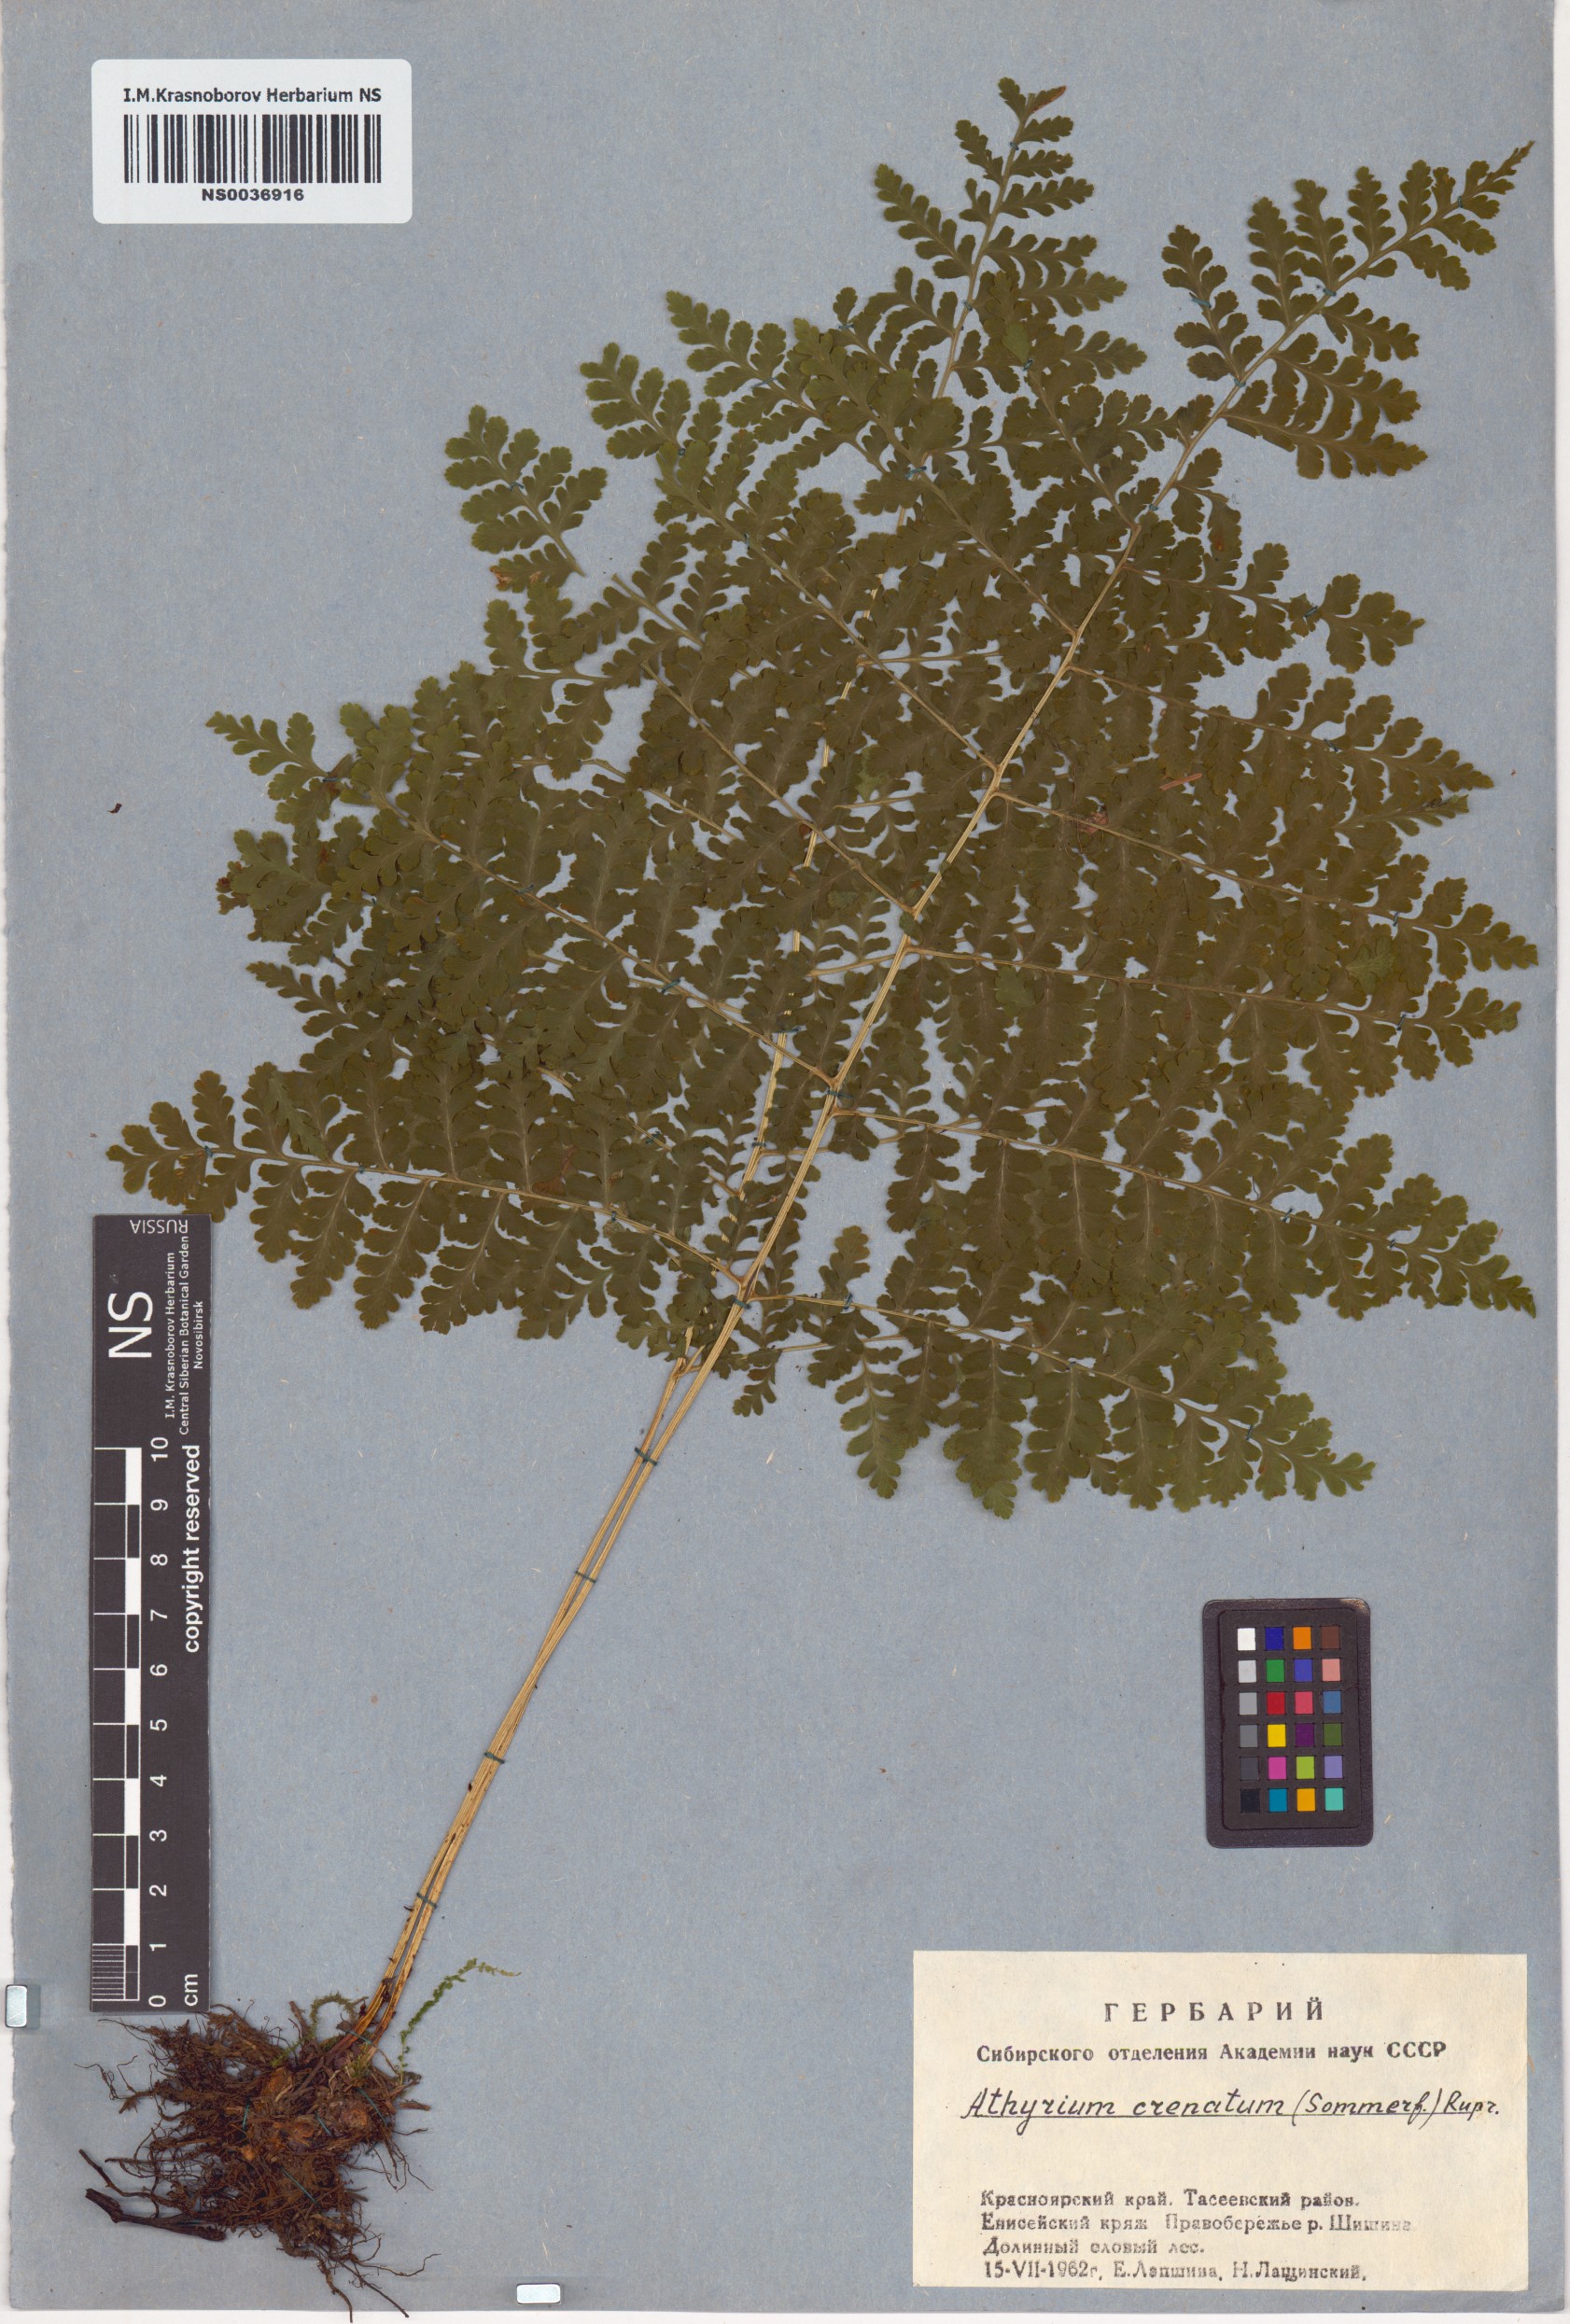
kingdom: Plantae
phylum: Tracheophyta
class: Polypodiopsida
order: Polypodiales
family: Athyriaceae
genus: Diplazium
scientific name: Diplazium sibiricum
